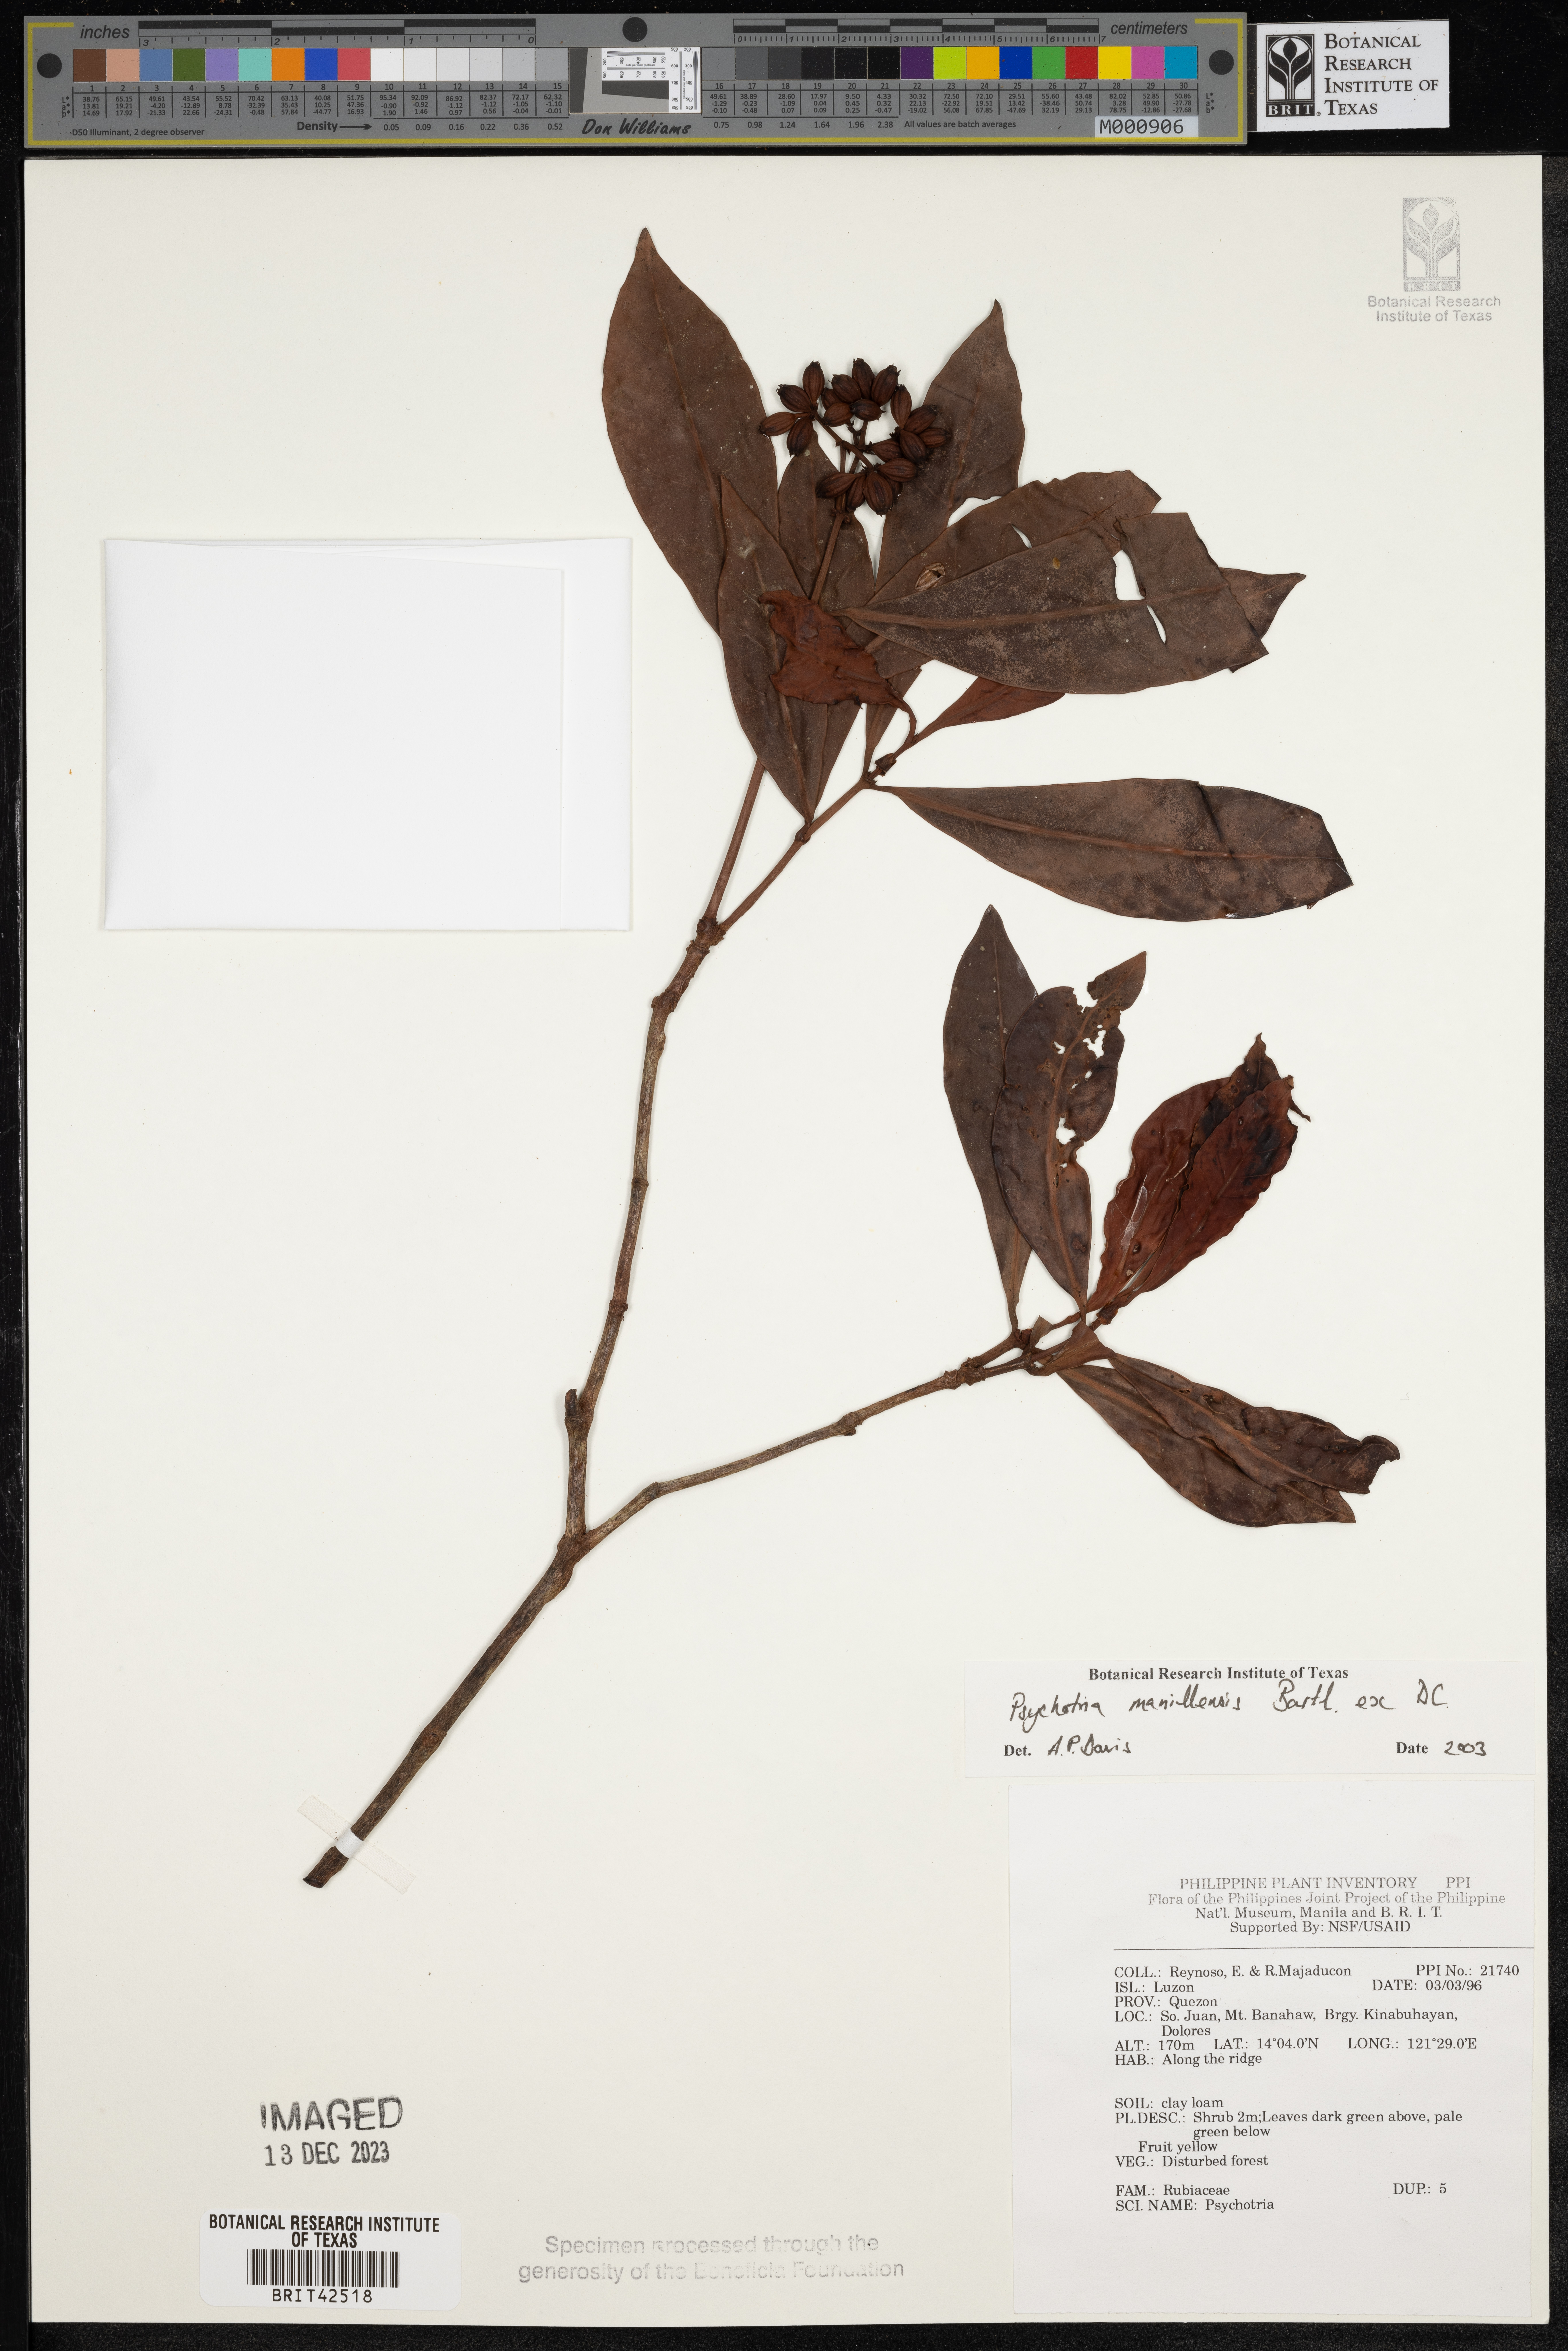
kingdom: Plantae
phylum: Tracheophyta
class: Magnoliopsida
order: Gentianales
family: Rubiaceae
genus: Psychotria
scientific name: Psychotria manillensis
